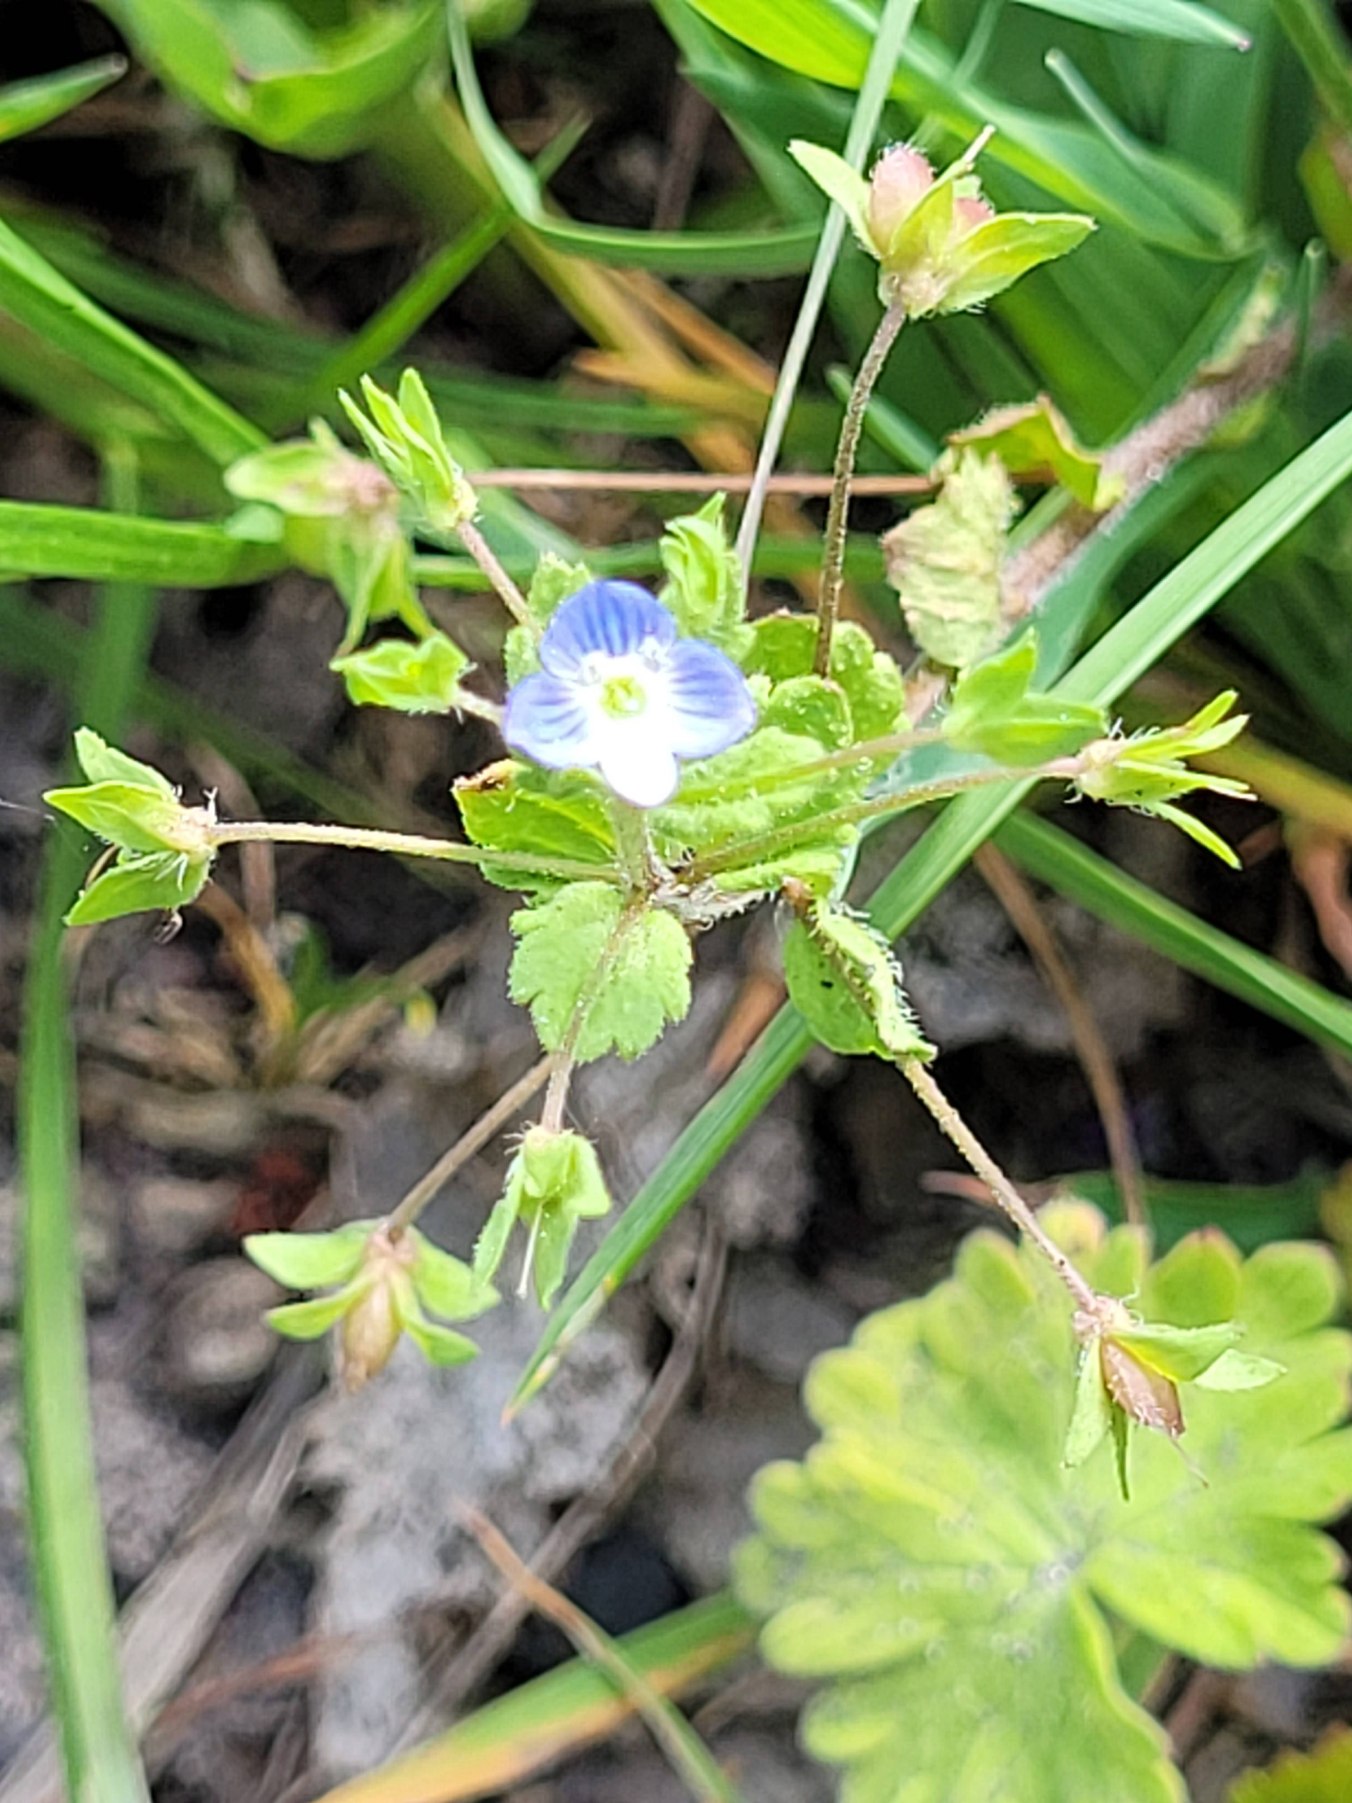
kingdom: Plantae
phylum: Tracheophyta
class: Magnoliopsida
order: Lamiales
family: Plantaginaceae
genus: Veronica
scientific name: Veronica persica
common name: Storkronet ærenpris
